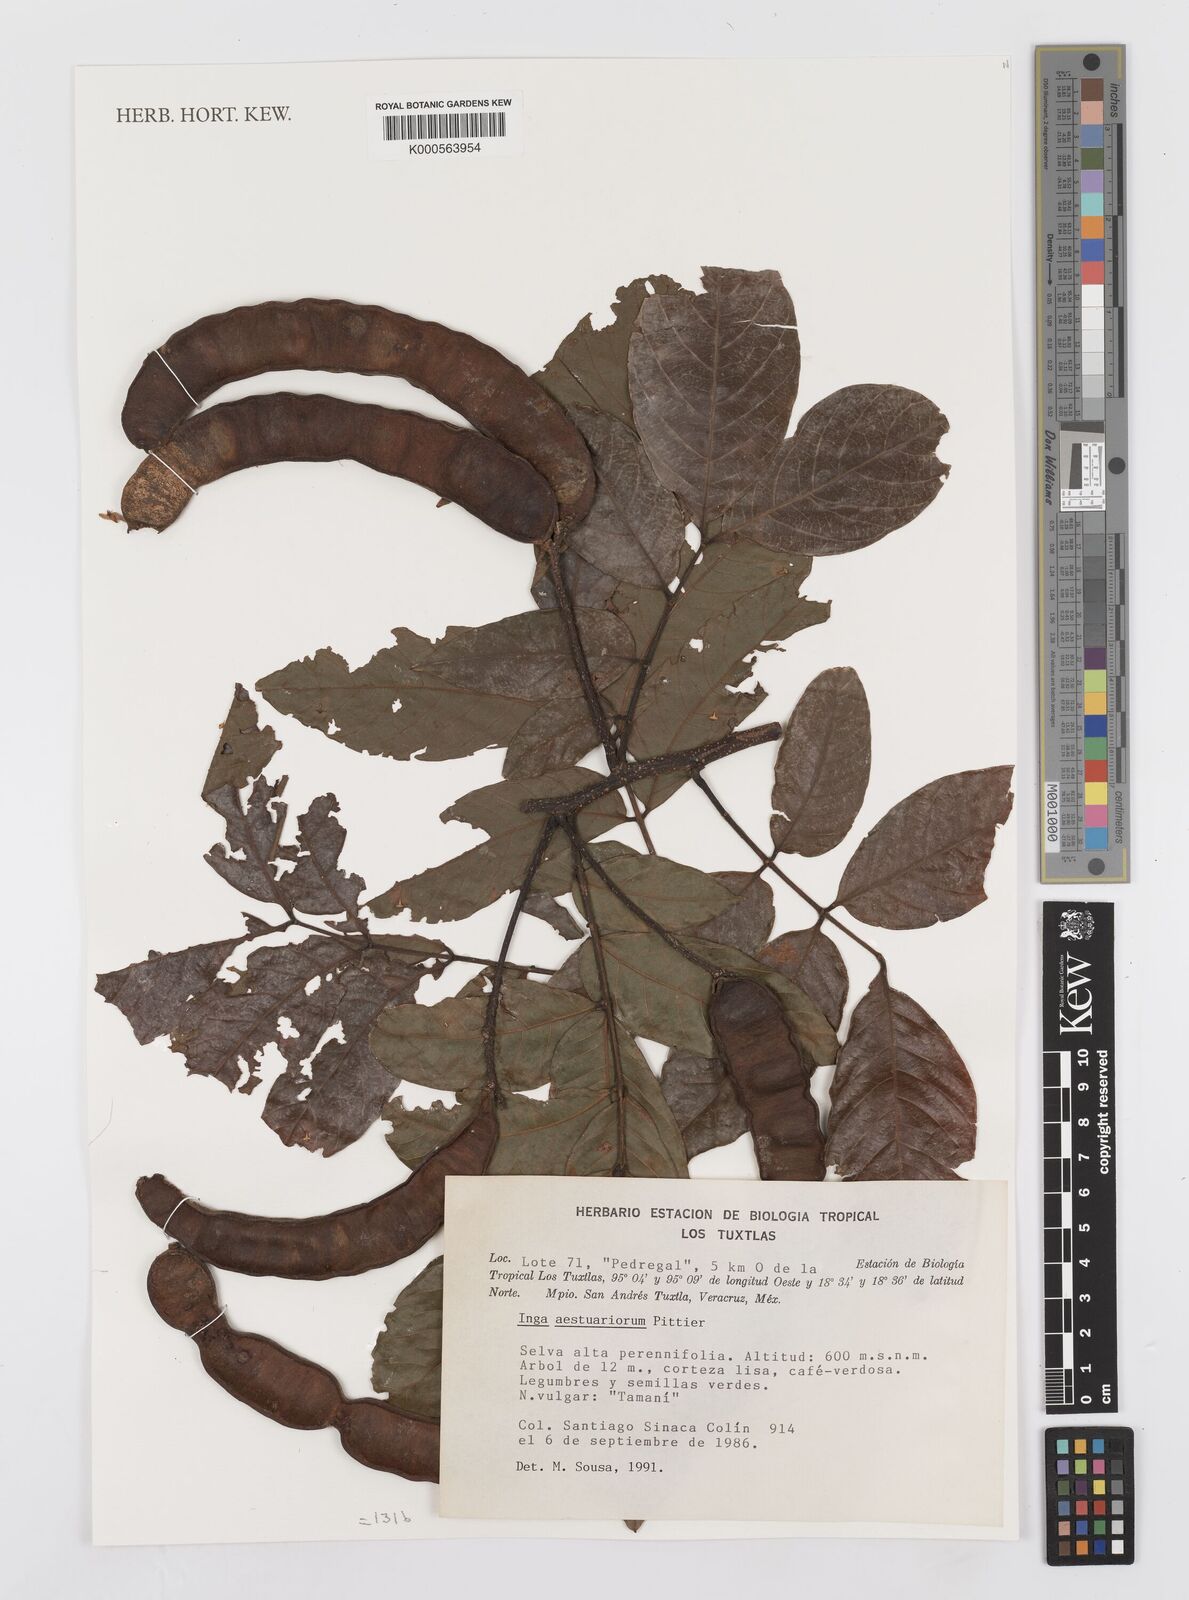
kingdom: Plantae
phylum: Tracheophyta
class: Magnoliopsida
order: Fabales
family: Fabaceae
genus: Inga
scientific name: Inga multijuga
